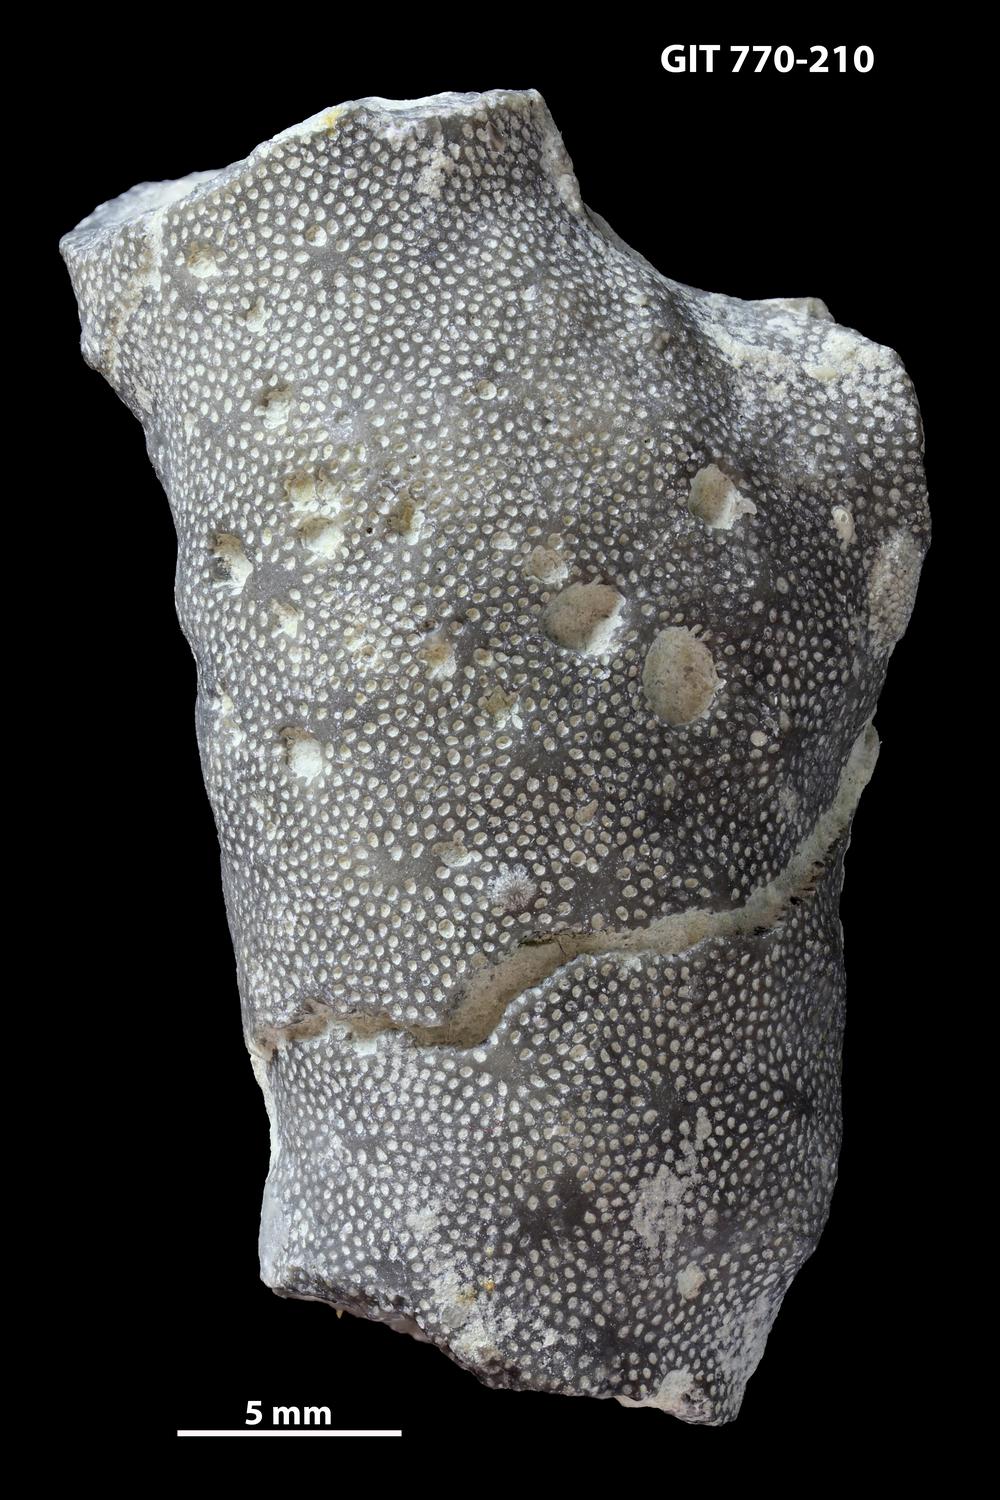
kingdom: Animalia
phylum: Bryozoa
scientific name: Bryozoa
